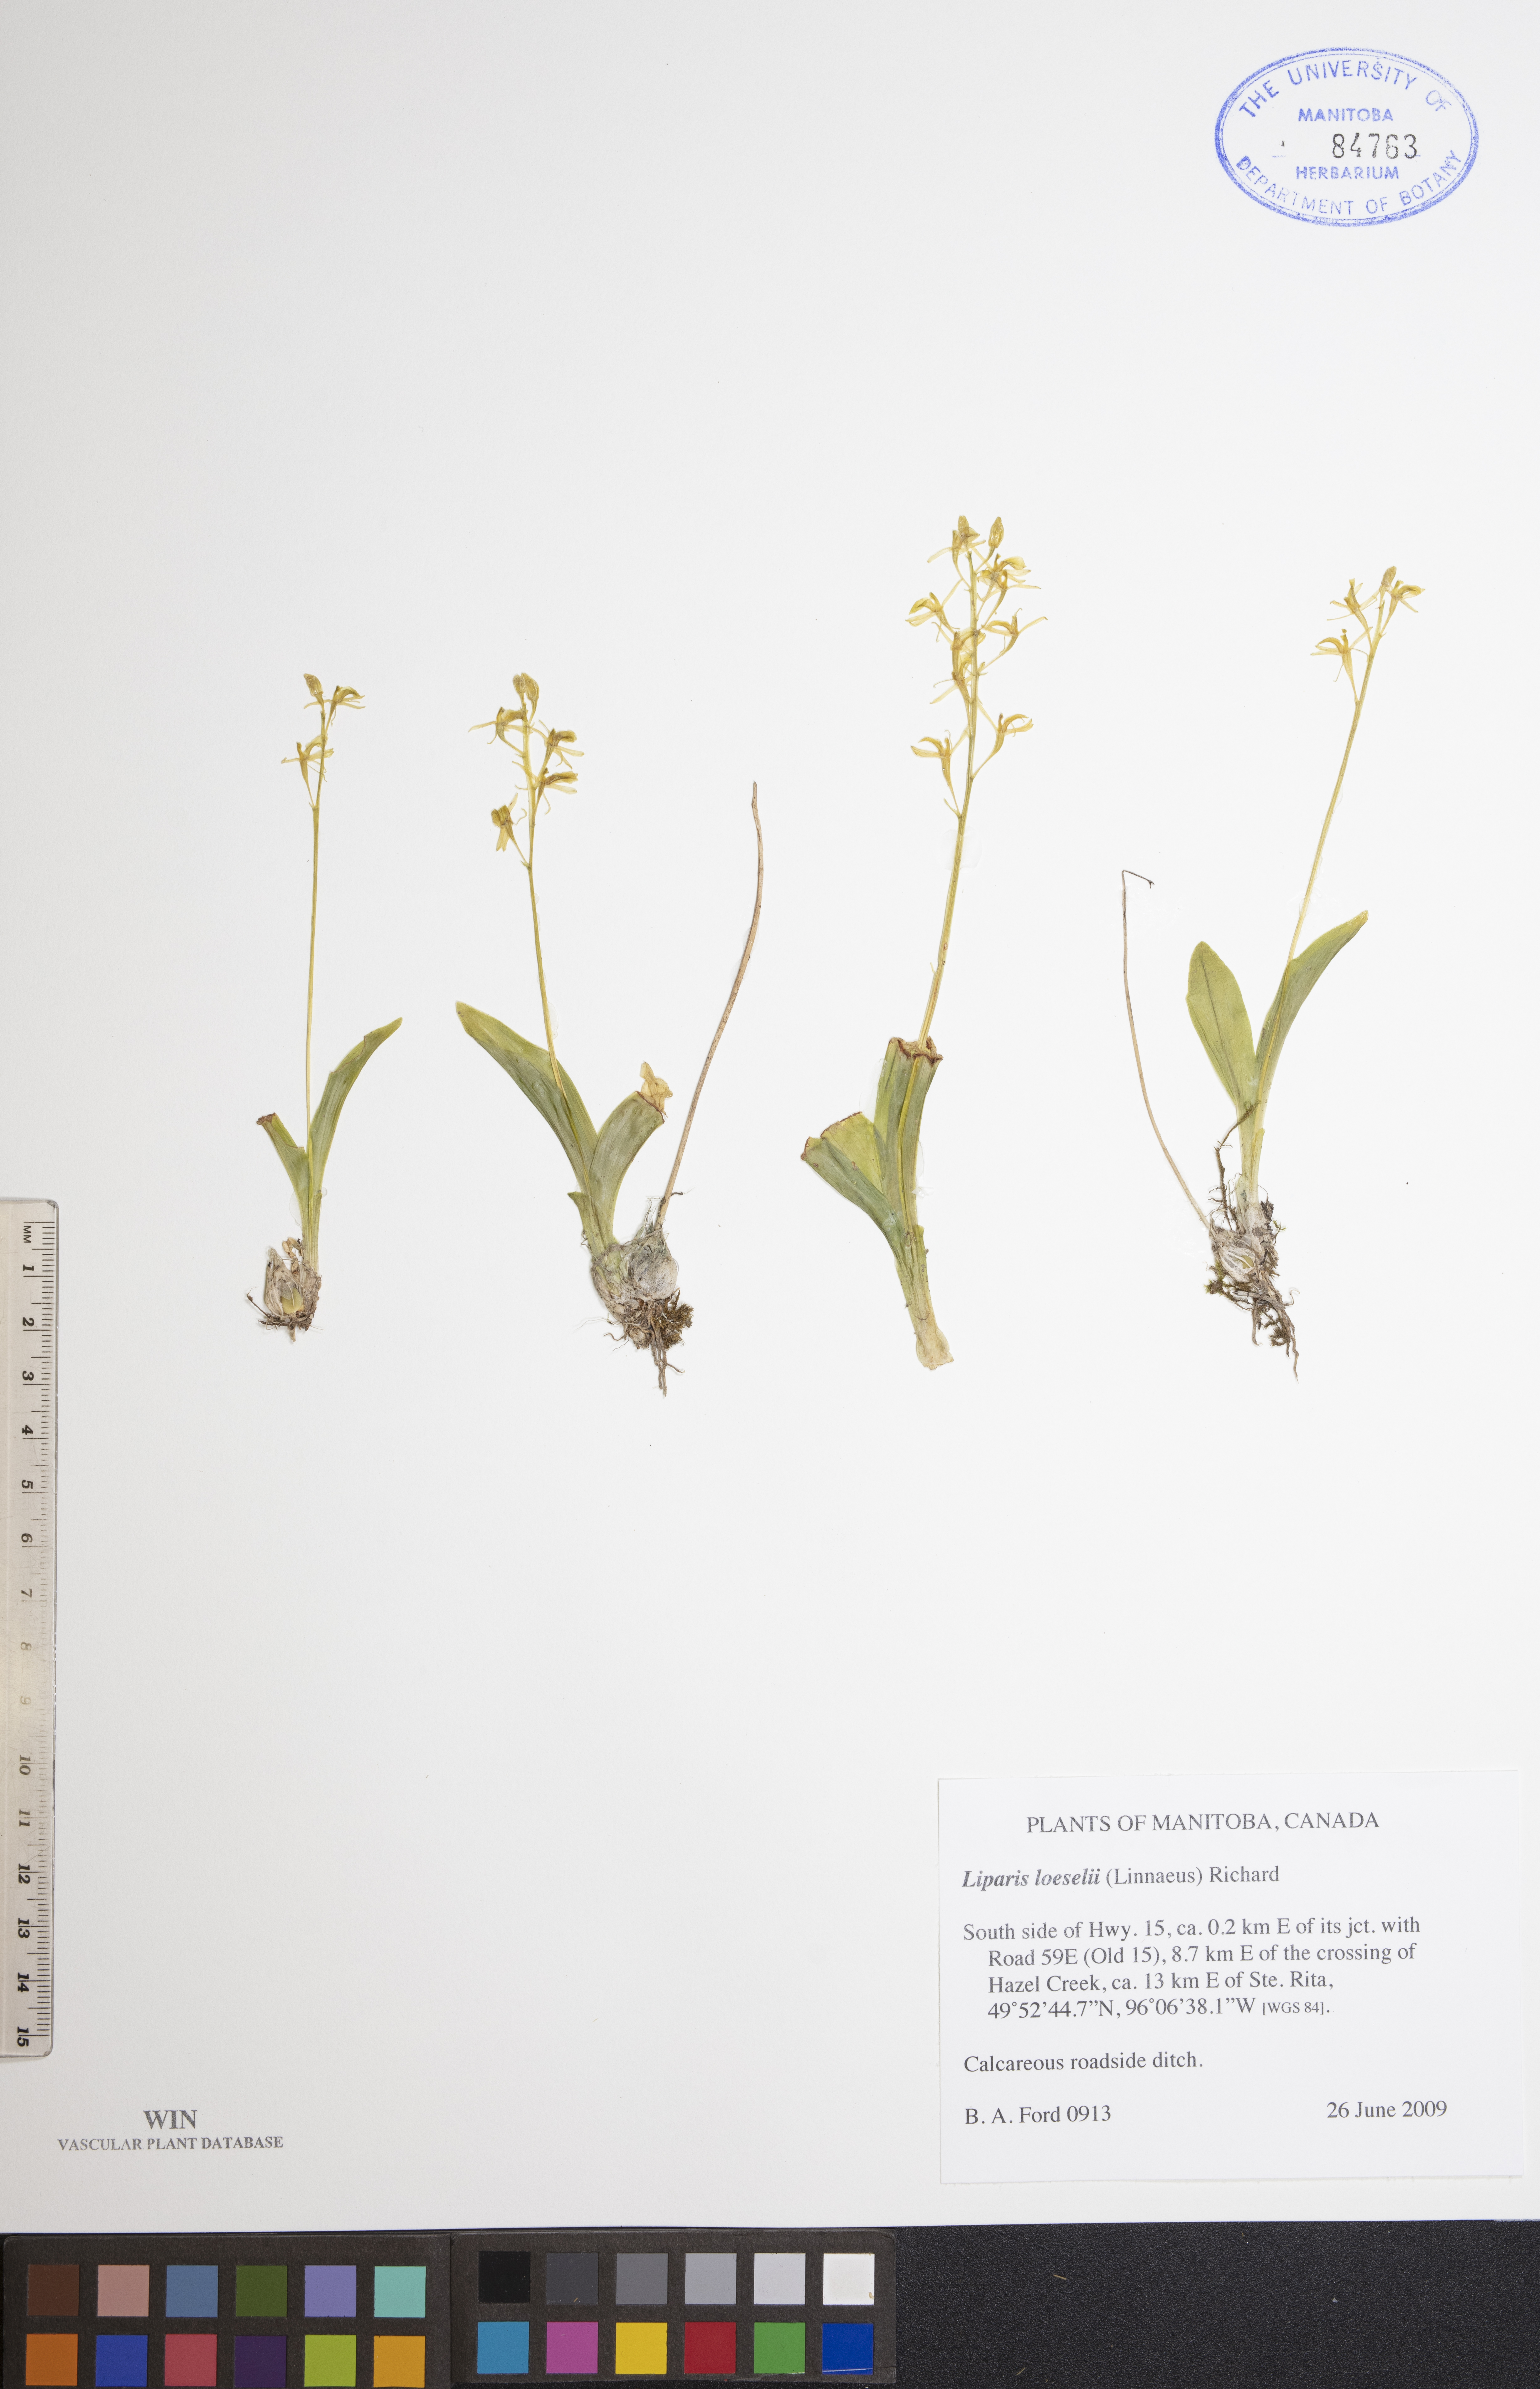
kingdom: Animalia
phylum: Arthropoda
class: Insecta
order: Coleoptera
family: Curculionidae
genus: Liparis
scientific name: Liparis loeselii
